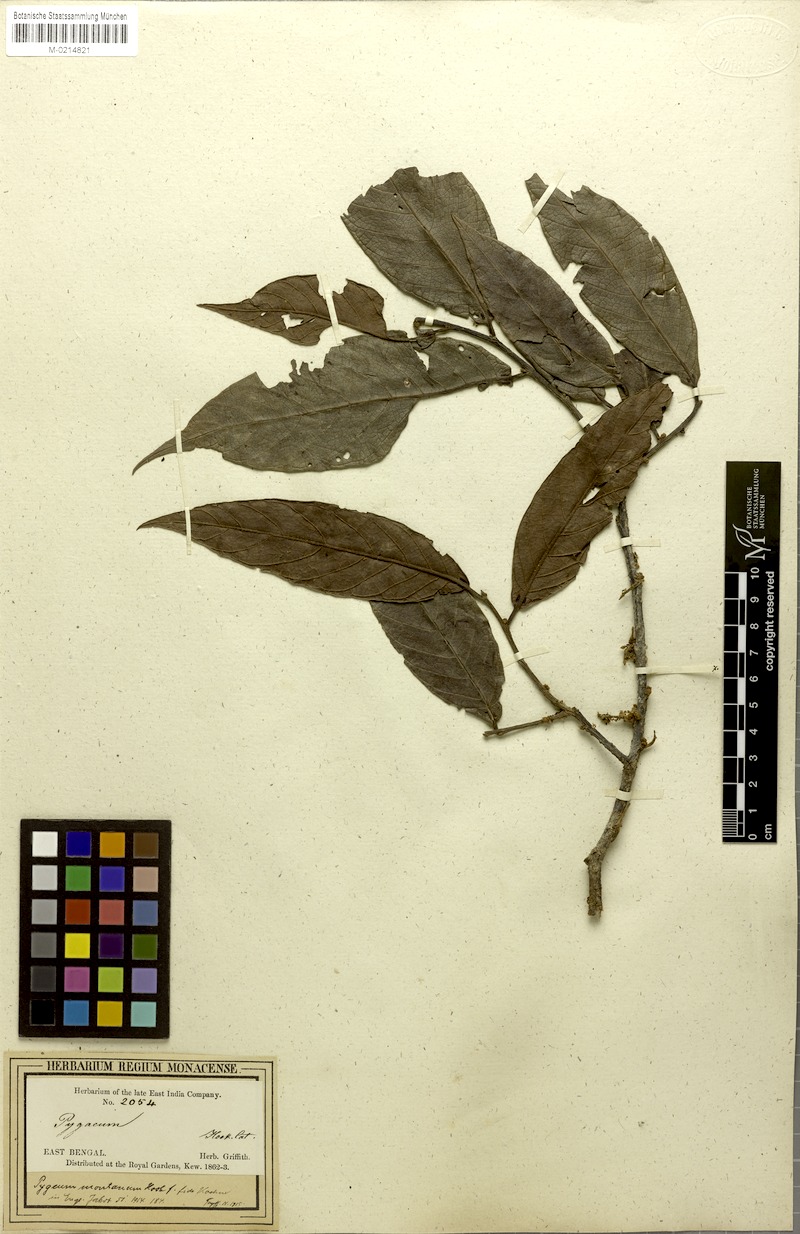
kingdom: Plantae
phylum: Tracheophyta
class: Magnoliopsida
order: Rosales
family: Rosaceae
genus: Prunus
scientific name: Prunus arborea
